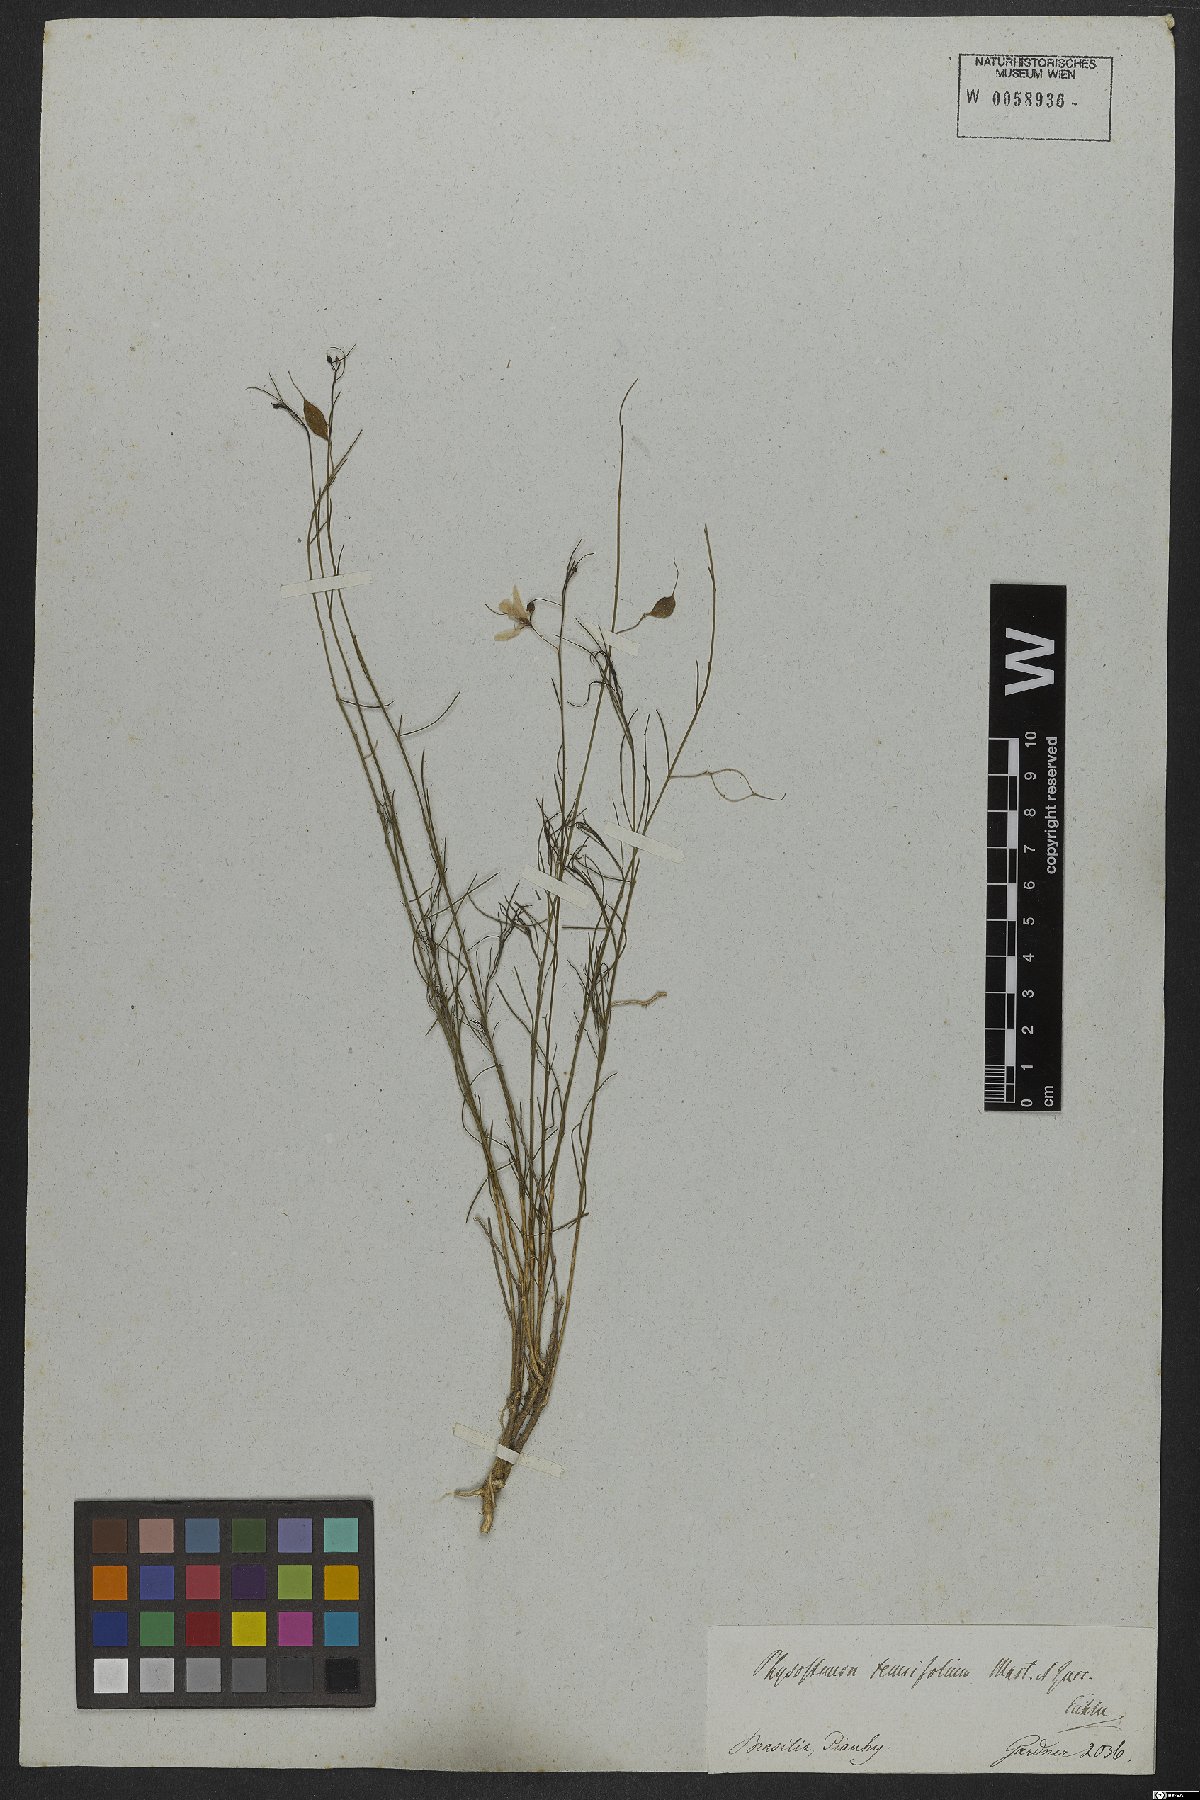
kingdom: Plantae
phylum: Tracheophyta
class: Magnoliopsida
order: Brassicales
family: Cleomaceae
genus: Physostemon
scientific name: Physostemon tenuifolius
